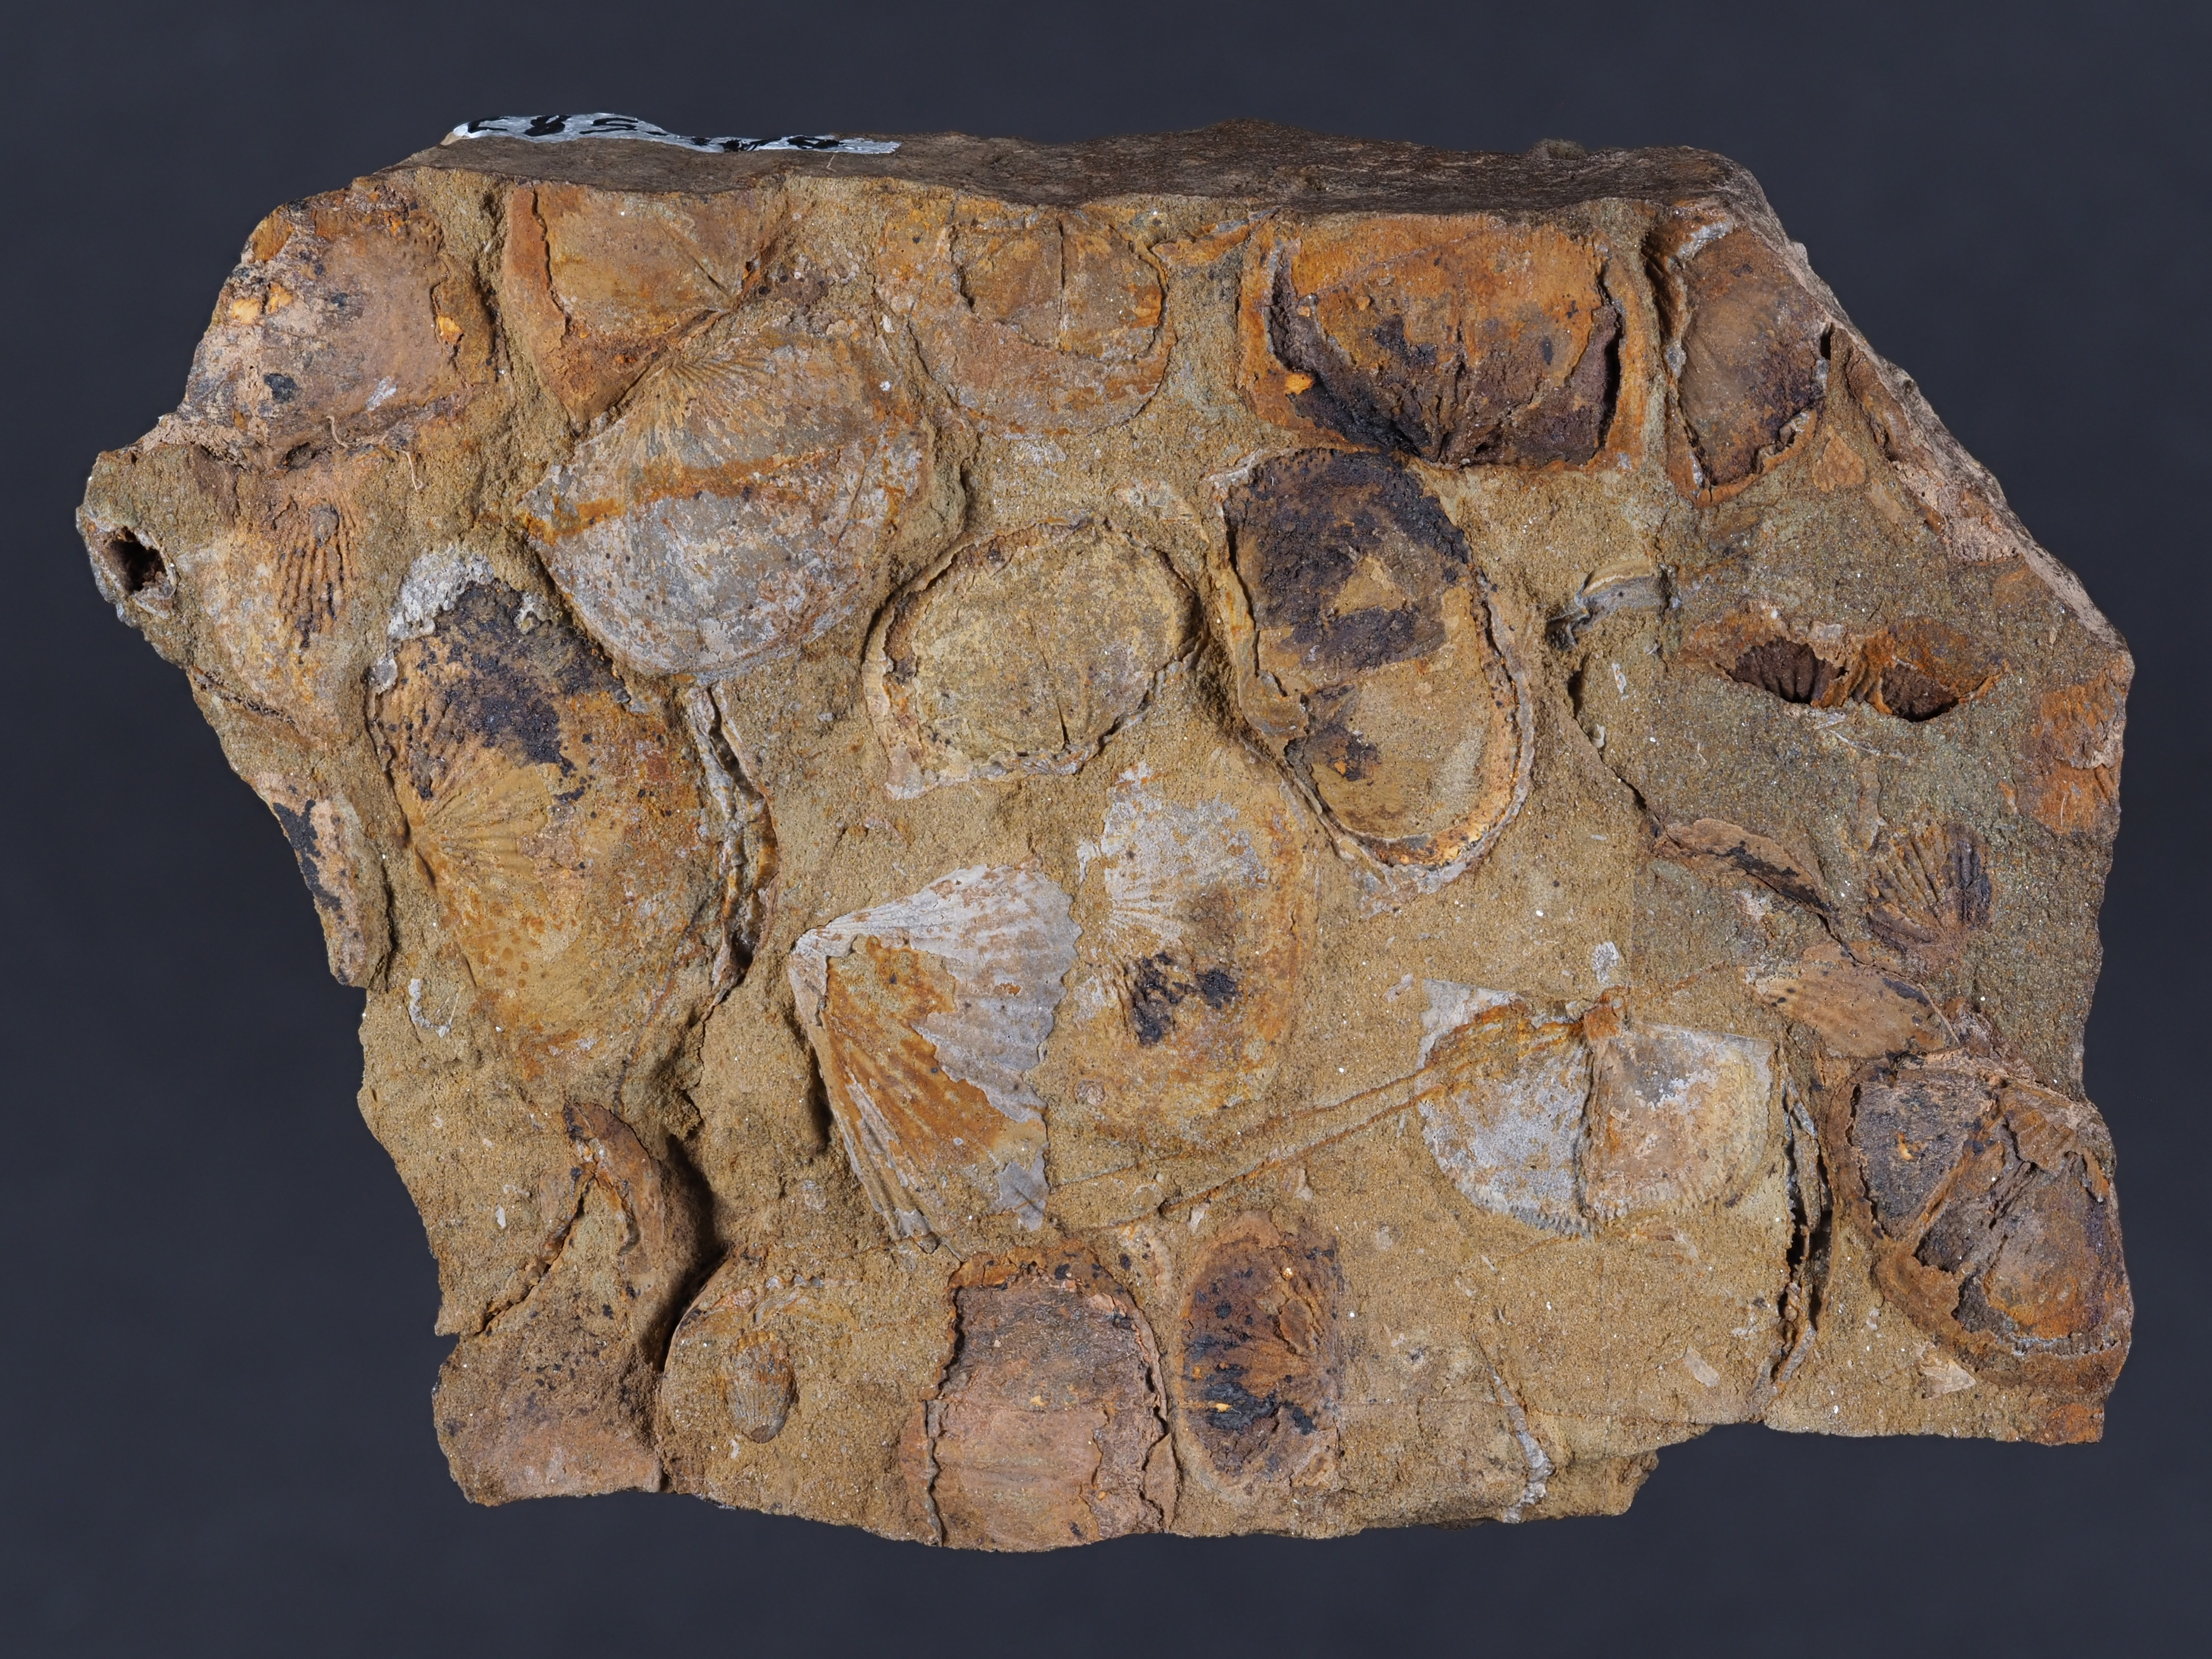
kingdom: Animalia
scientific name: Animalia
